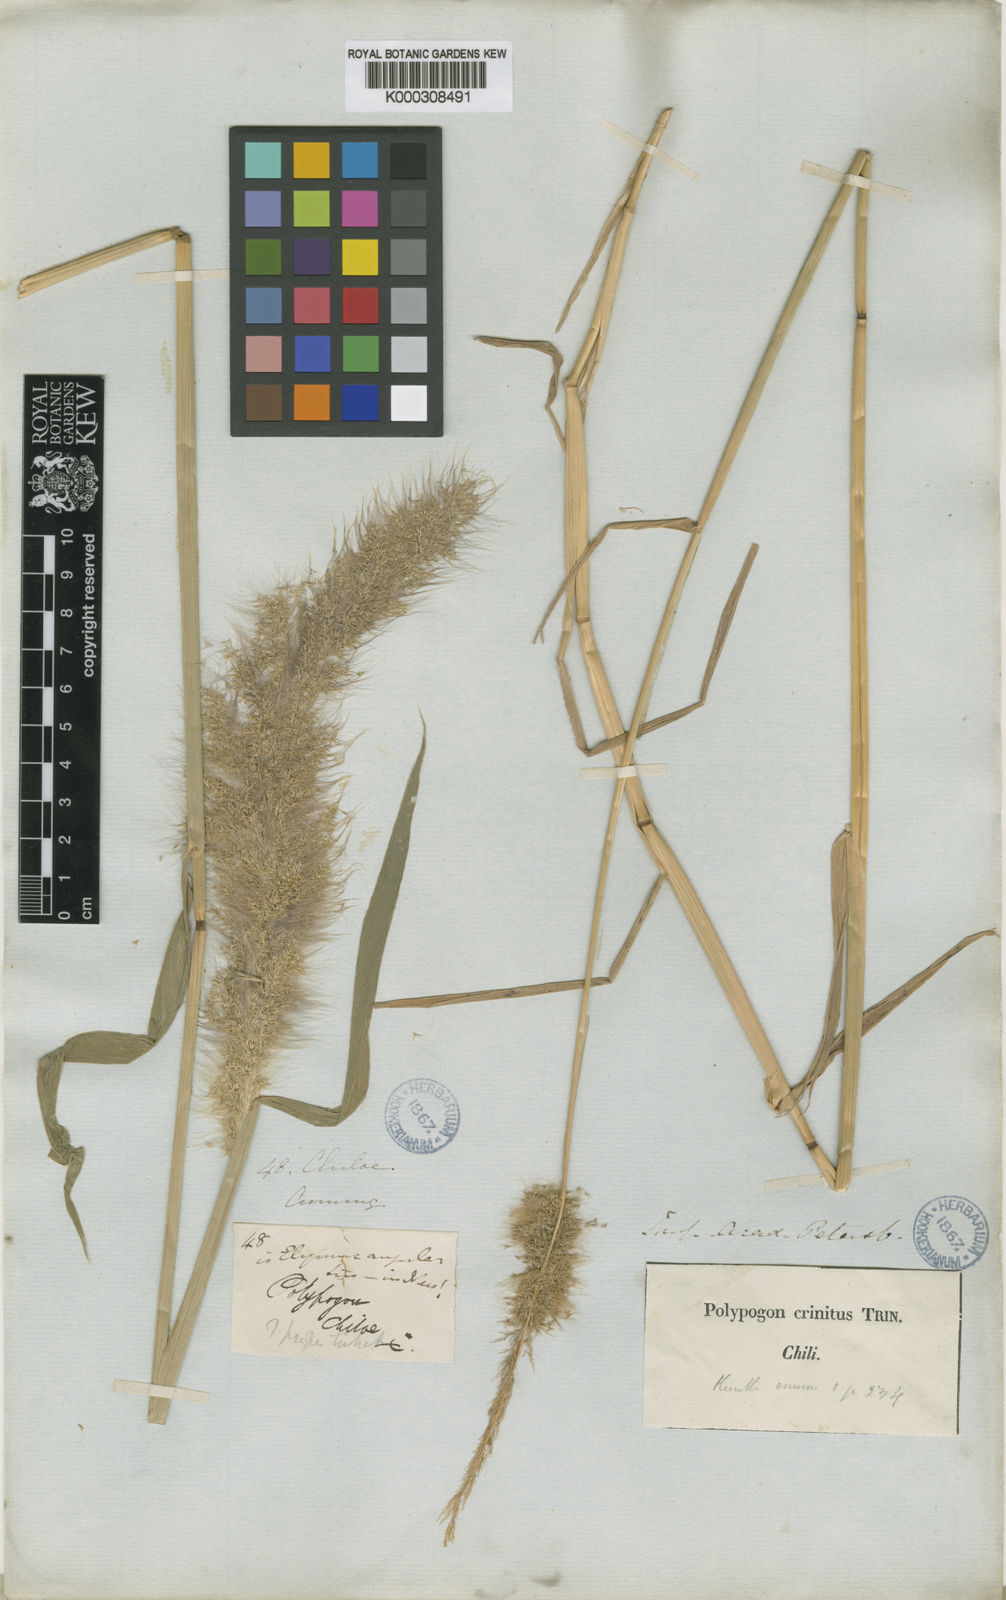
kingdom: Plantae
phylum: Tracheophyta
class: Liliopsida
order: Poales
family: Poaceae
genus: Polypogon
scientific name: Polypogon australis
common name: Chilean rabbitsfoot grass
